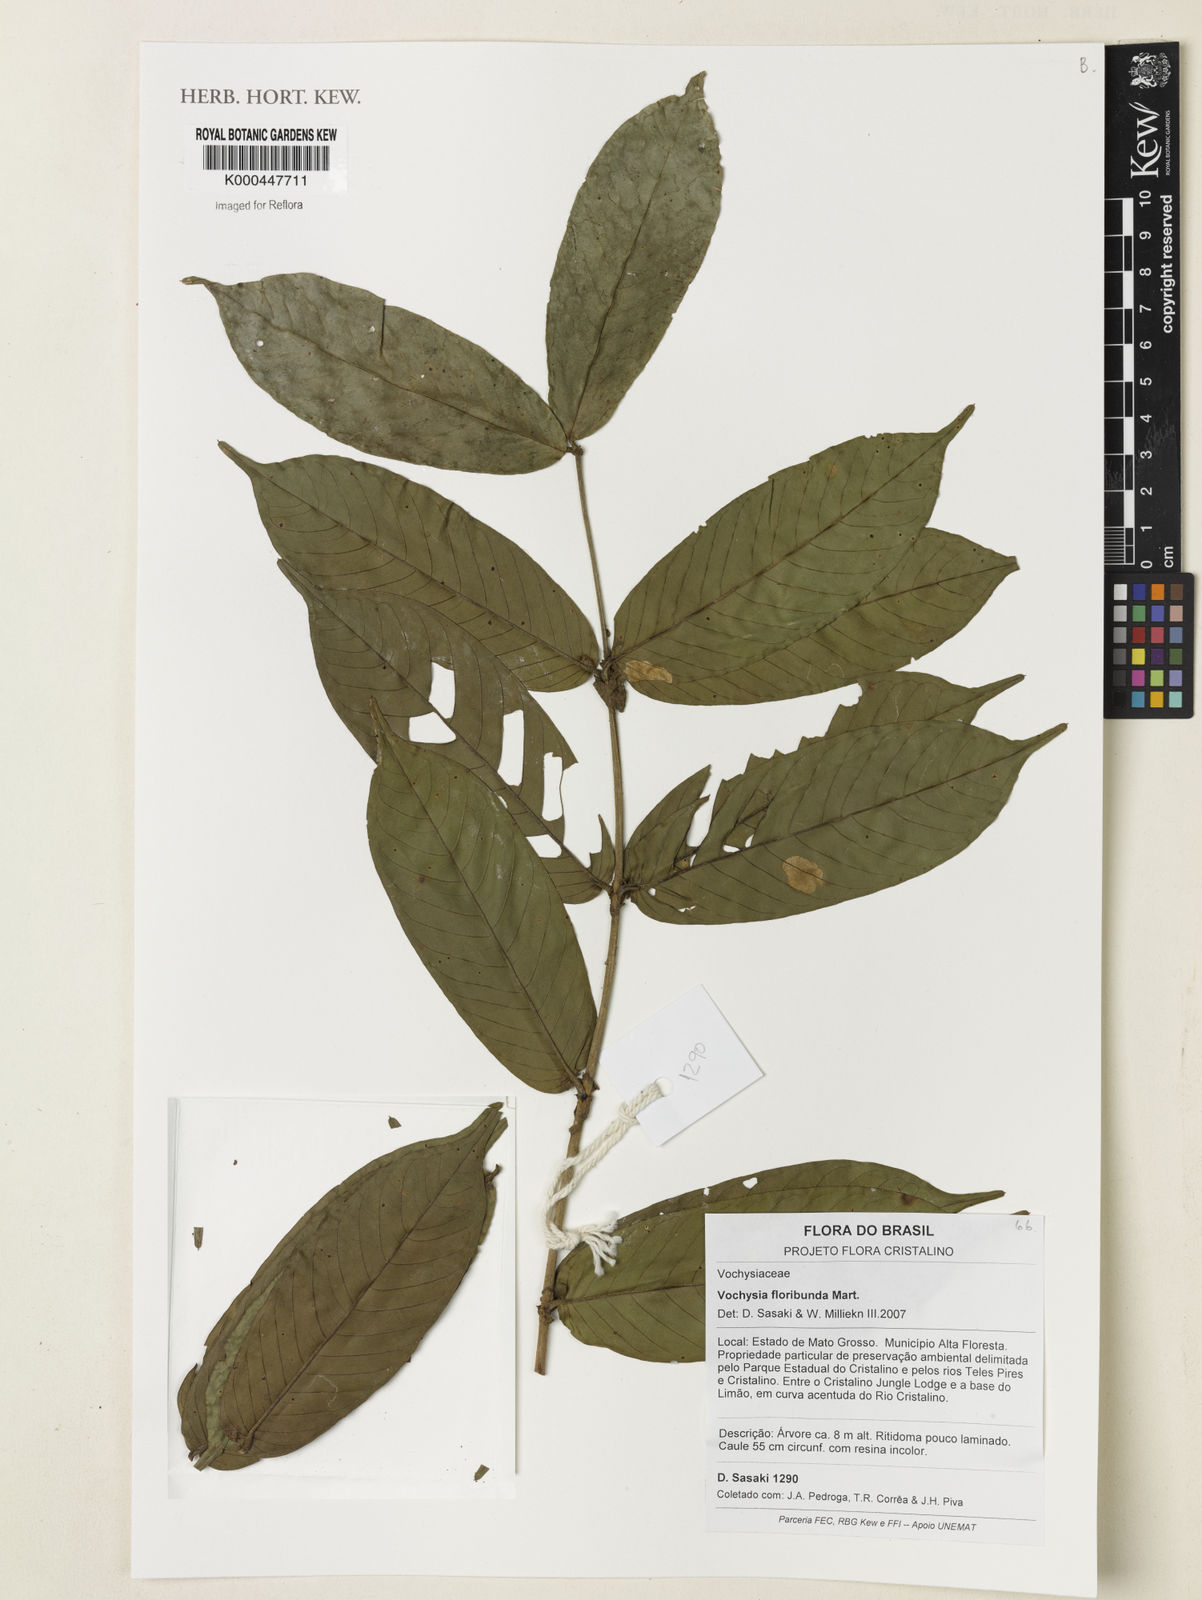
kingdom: Plantae
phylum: Tracheophyta
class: Magnoliopsida
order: Myrtales
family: Vochysiaceae
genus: Vochysia
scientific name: Vochysia floribunda
